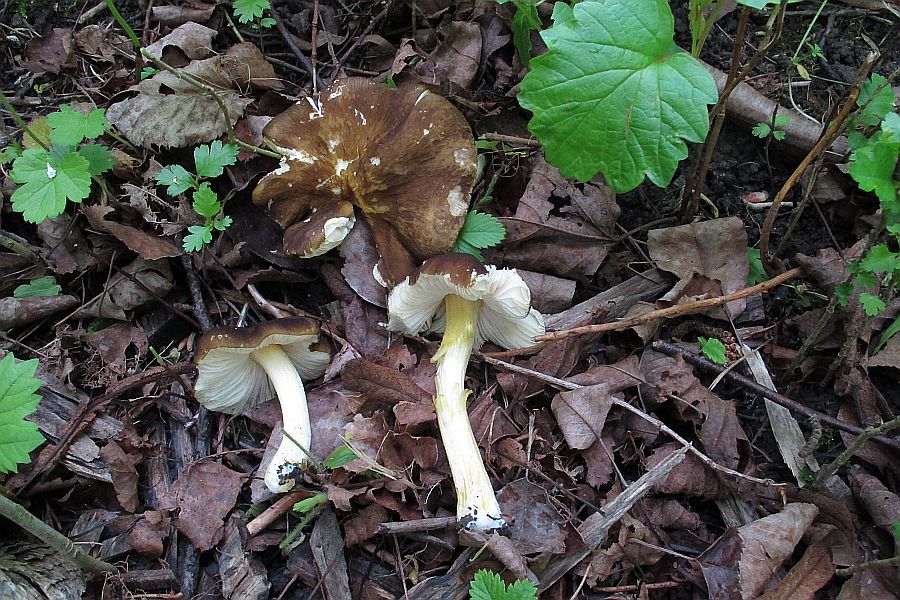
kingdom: Fungi
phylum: Basidiomycota
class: Agaricomycetes
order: Agaricales
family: Pluteaceae
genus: Pluteus
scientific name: Pluteus romellii
